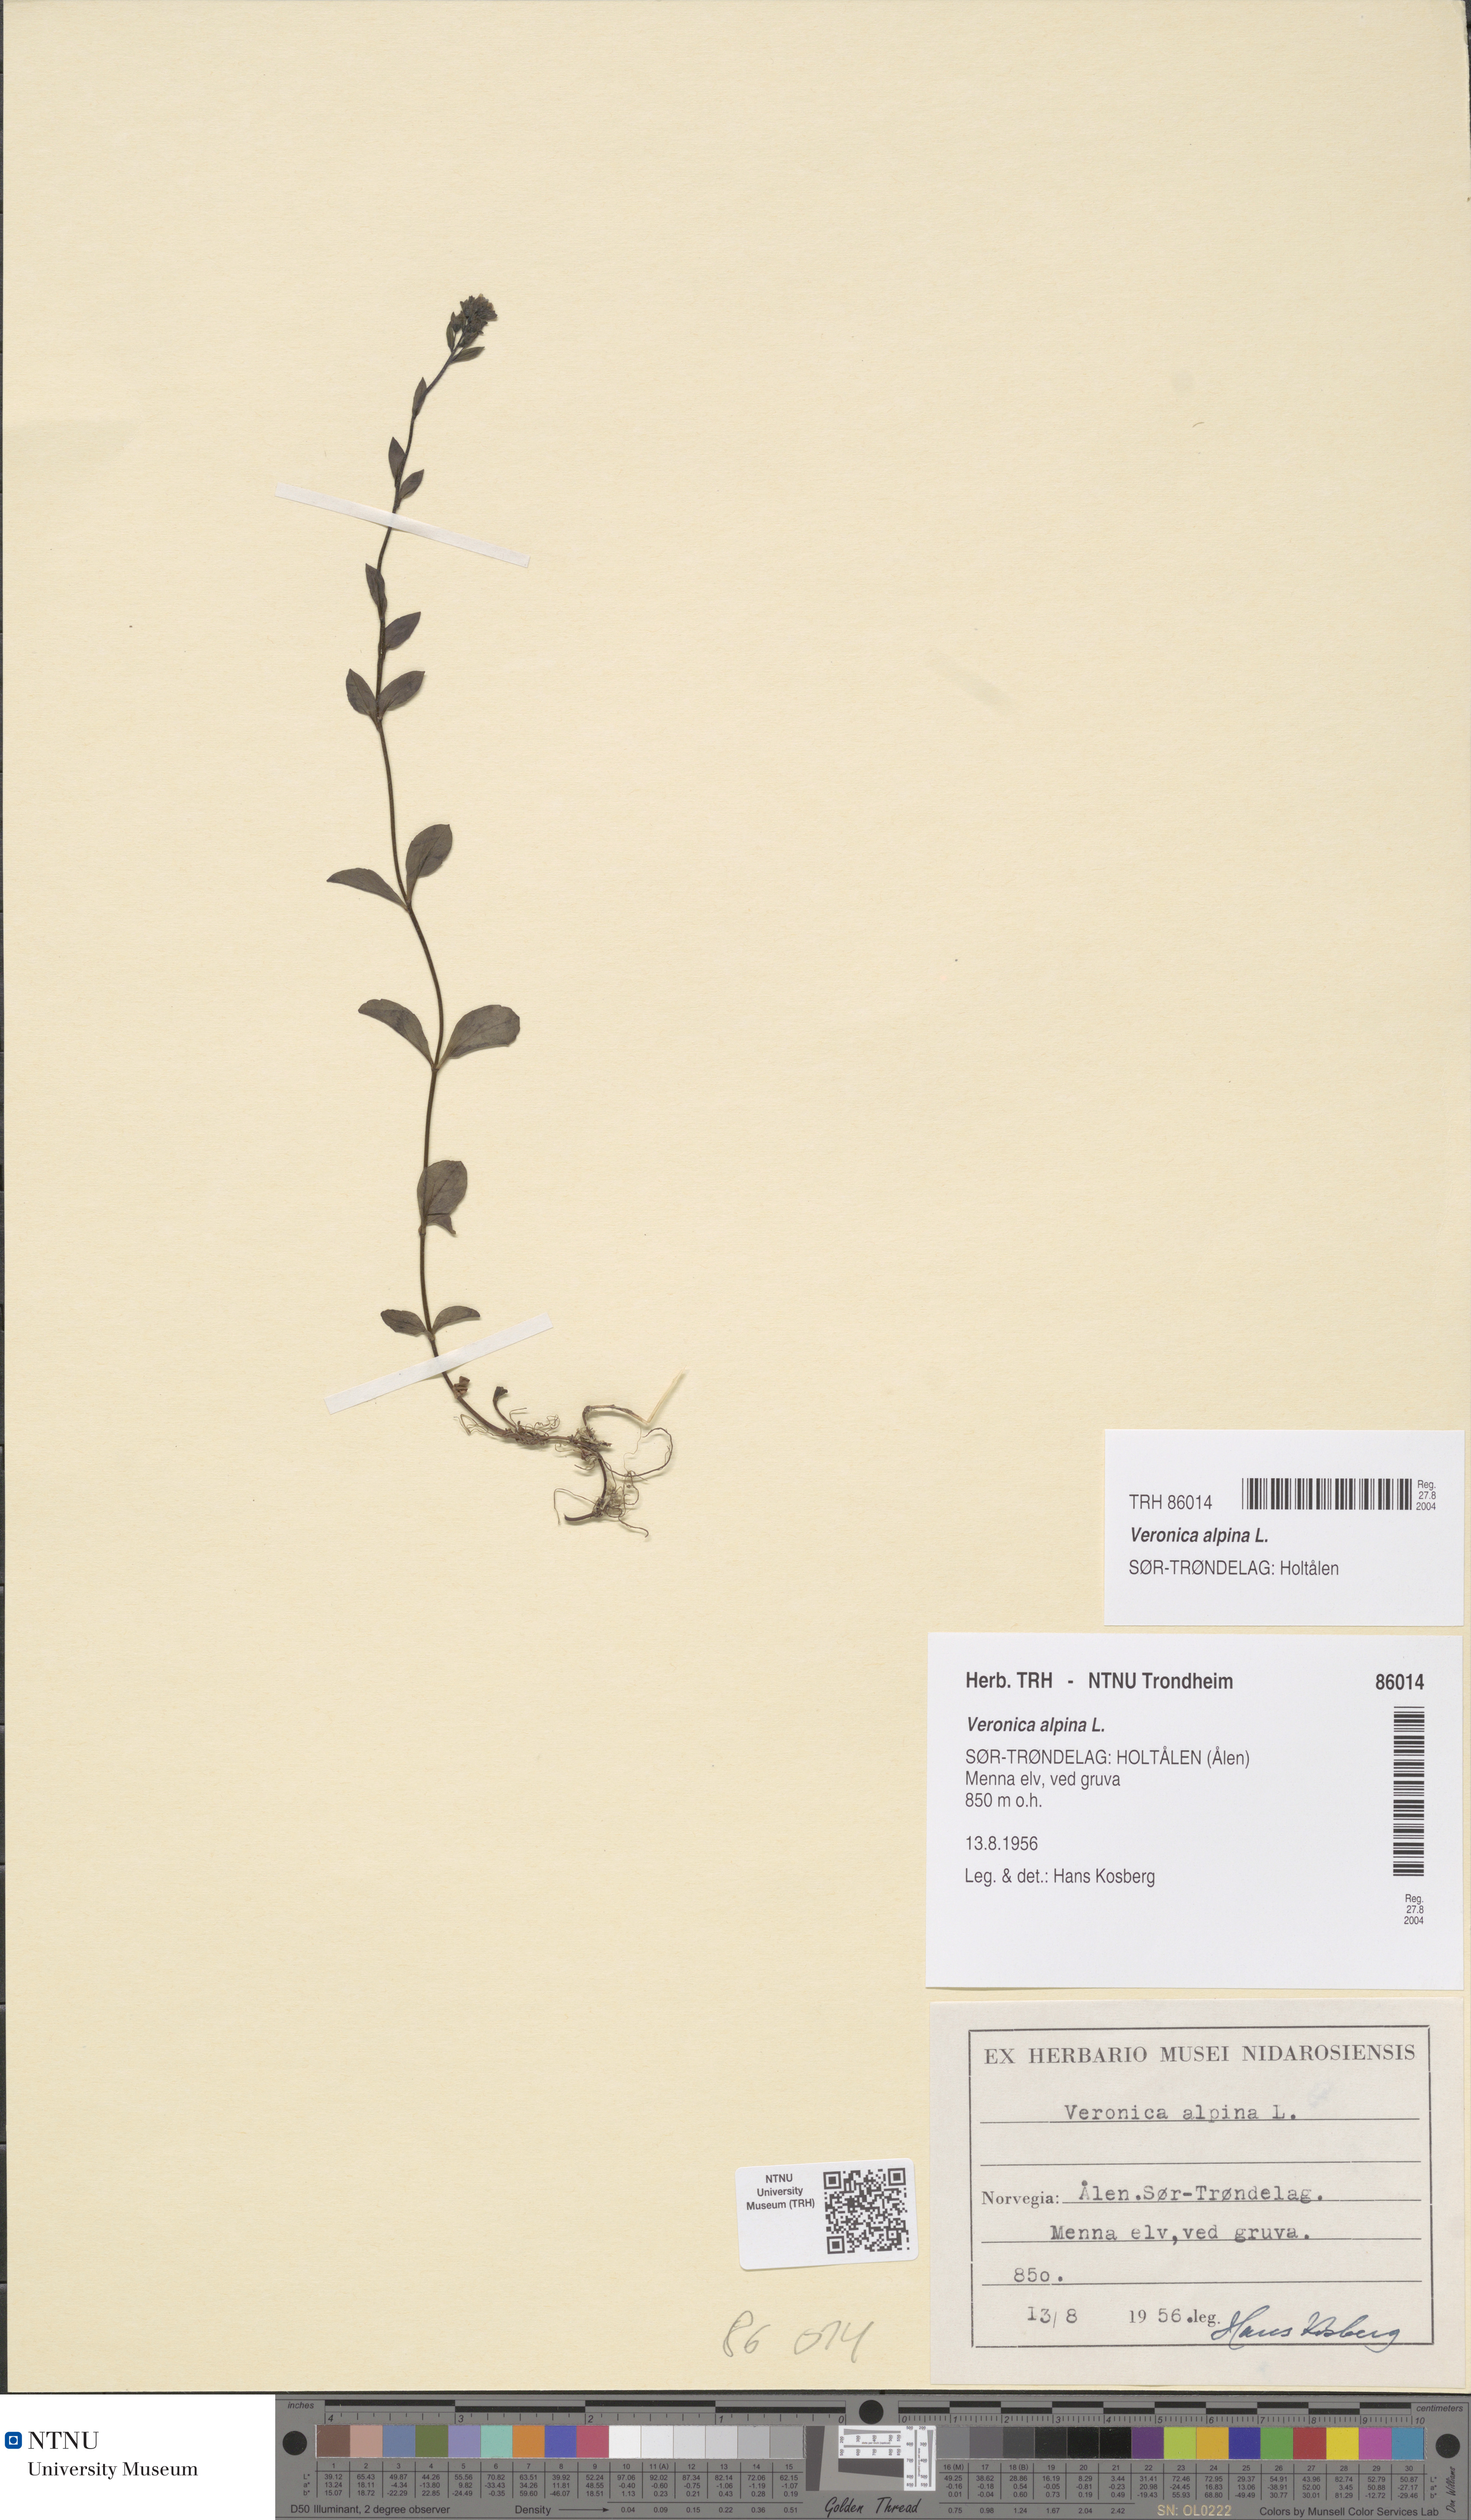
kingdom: Plantae
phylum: Tracheophyta
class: Magnoliopsida
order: Lamiales
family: Plantaginaceae
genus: Veronica
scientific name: Veronica alpina
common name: Alpine speedwell
